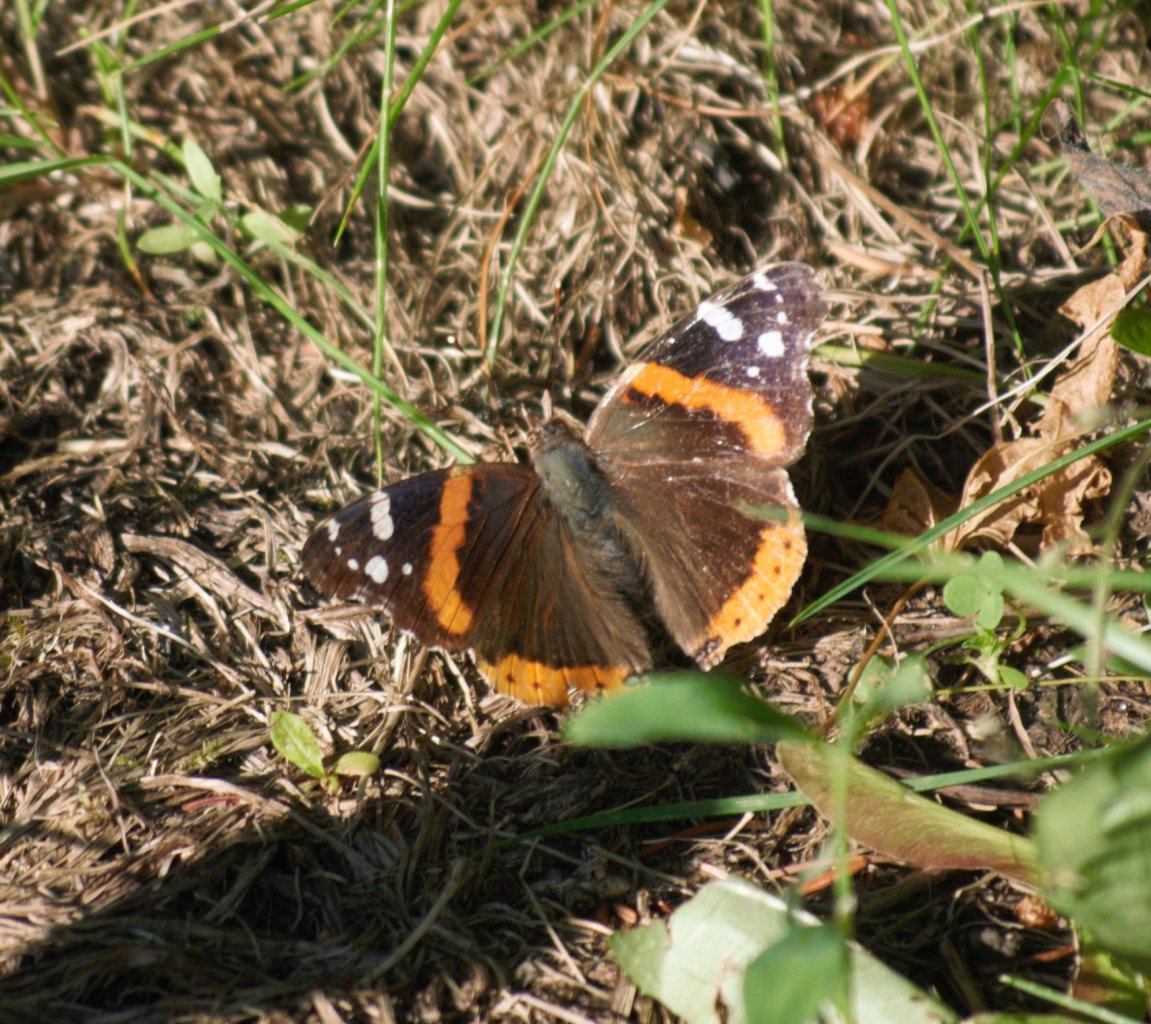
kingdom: Animalia
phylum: Arthropoda
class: Insecta
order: Lepidoptera
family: Nymphalidae
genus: Vanessa
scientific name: Vanessa atalanta
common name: Red Admiral
